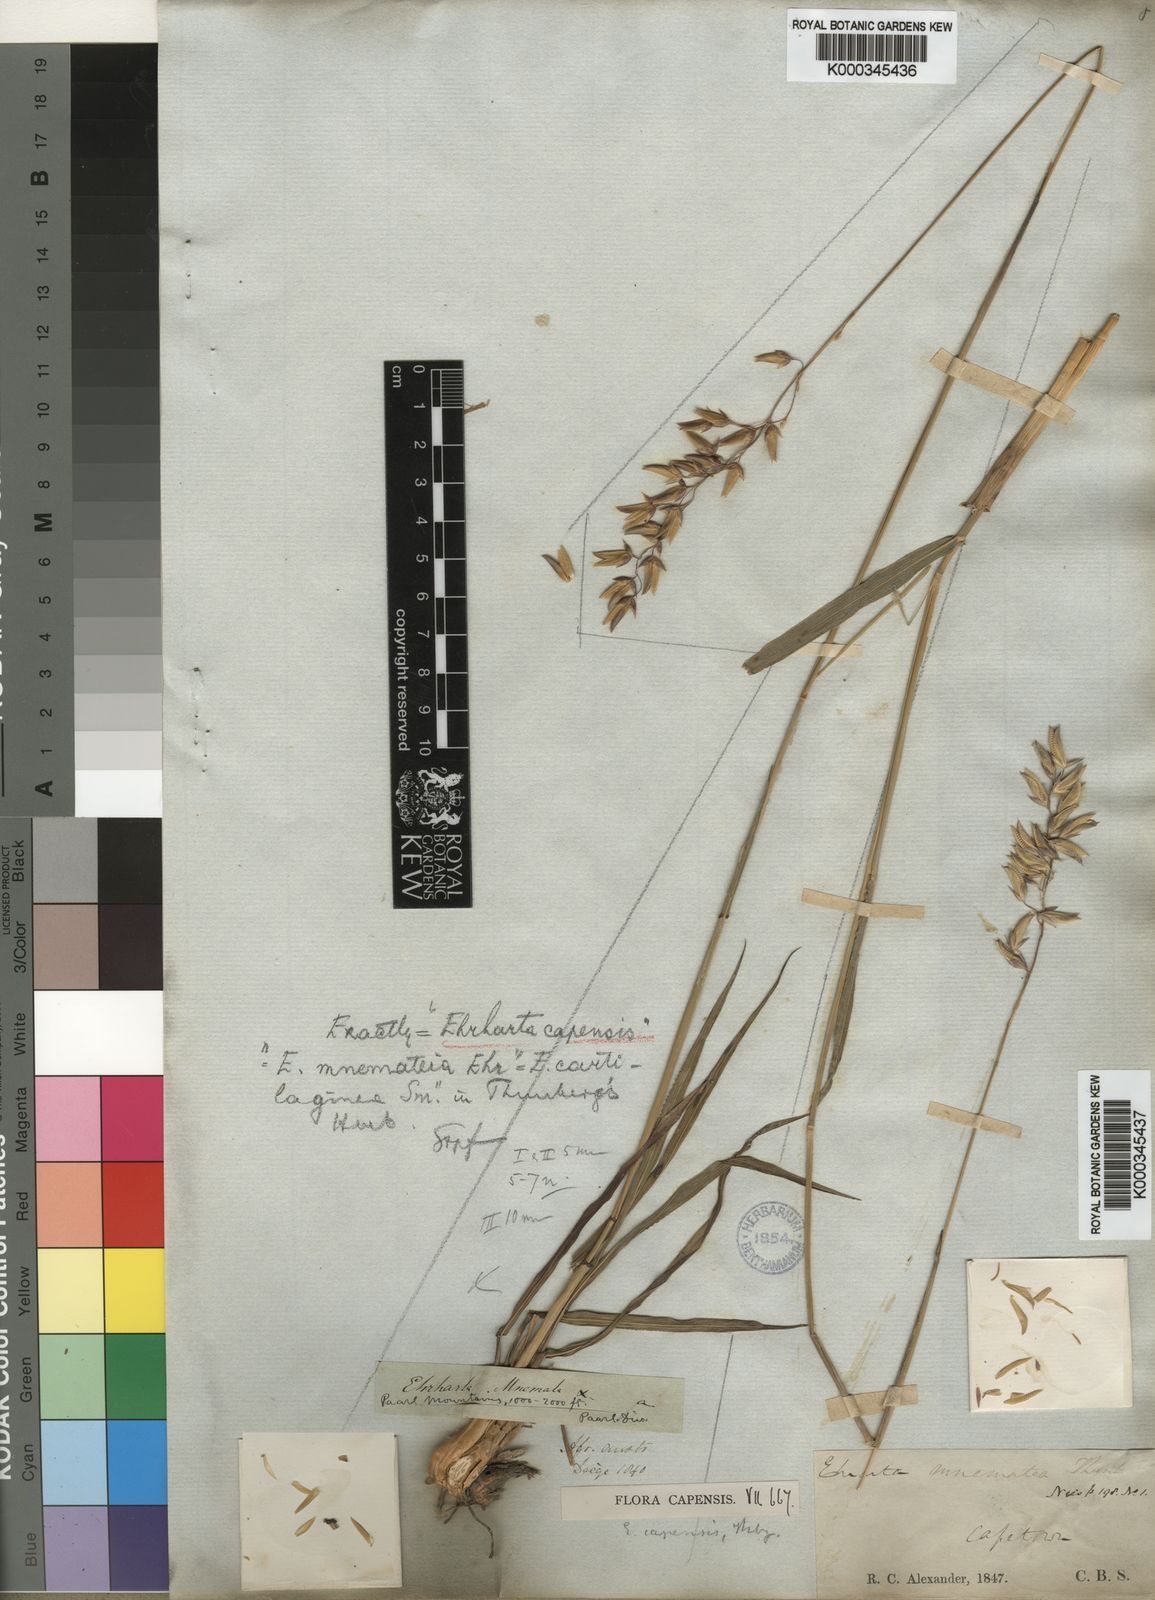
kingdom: Plantae
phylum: Tracheophyta
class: Liliopsida
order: Poales
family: Poaceae
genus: Ehrharta
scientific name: Ehrharta capensis
